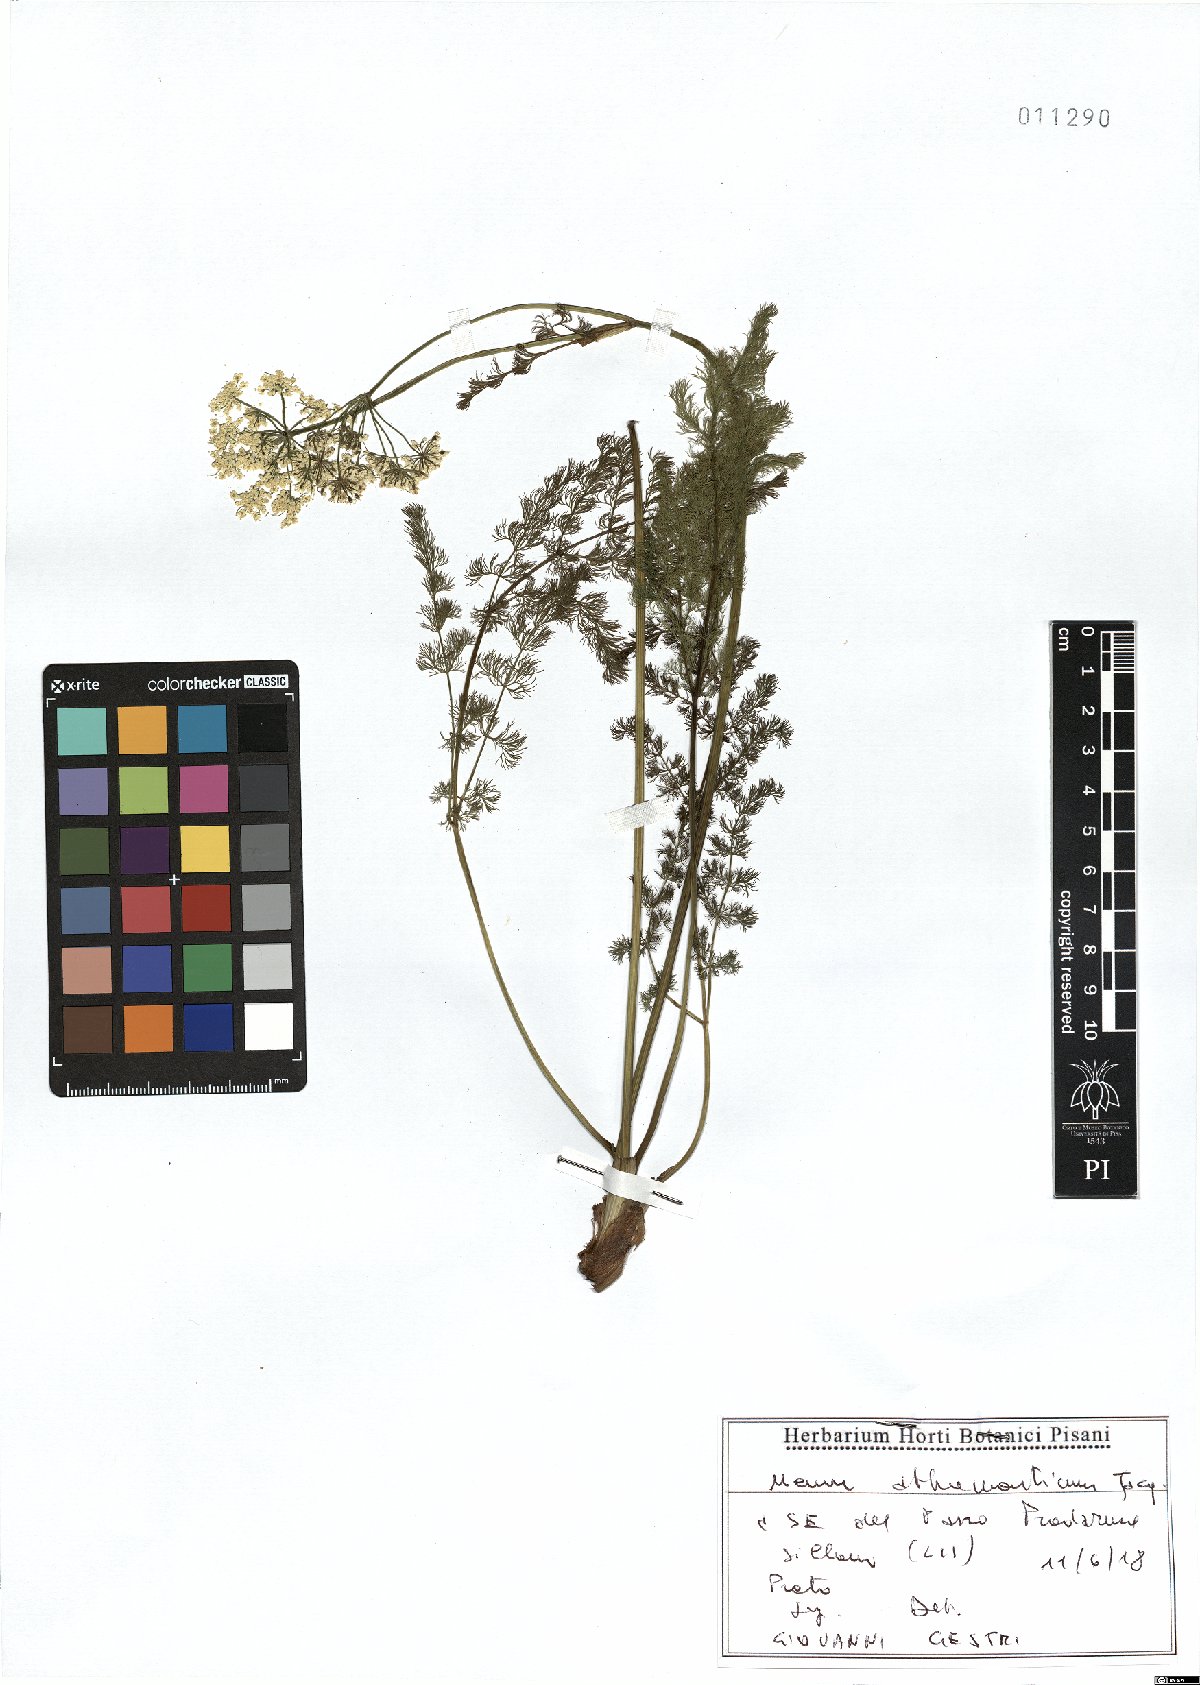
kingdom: Plantae
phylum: Tracheophyta
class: Magnoliopsida
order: Apiales
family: Apiaceae
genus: Meum
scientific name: Meum athamanticum
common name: Spignel
